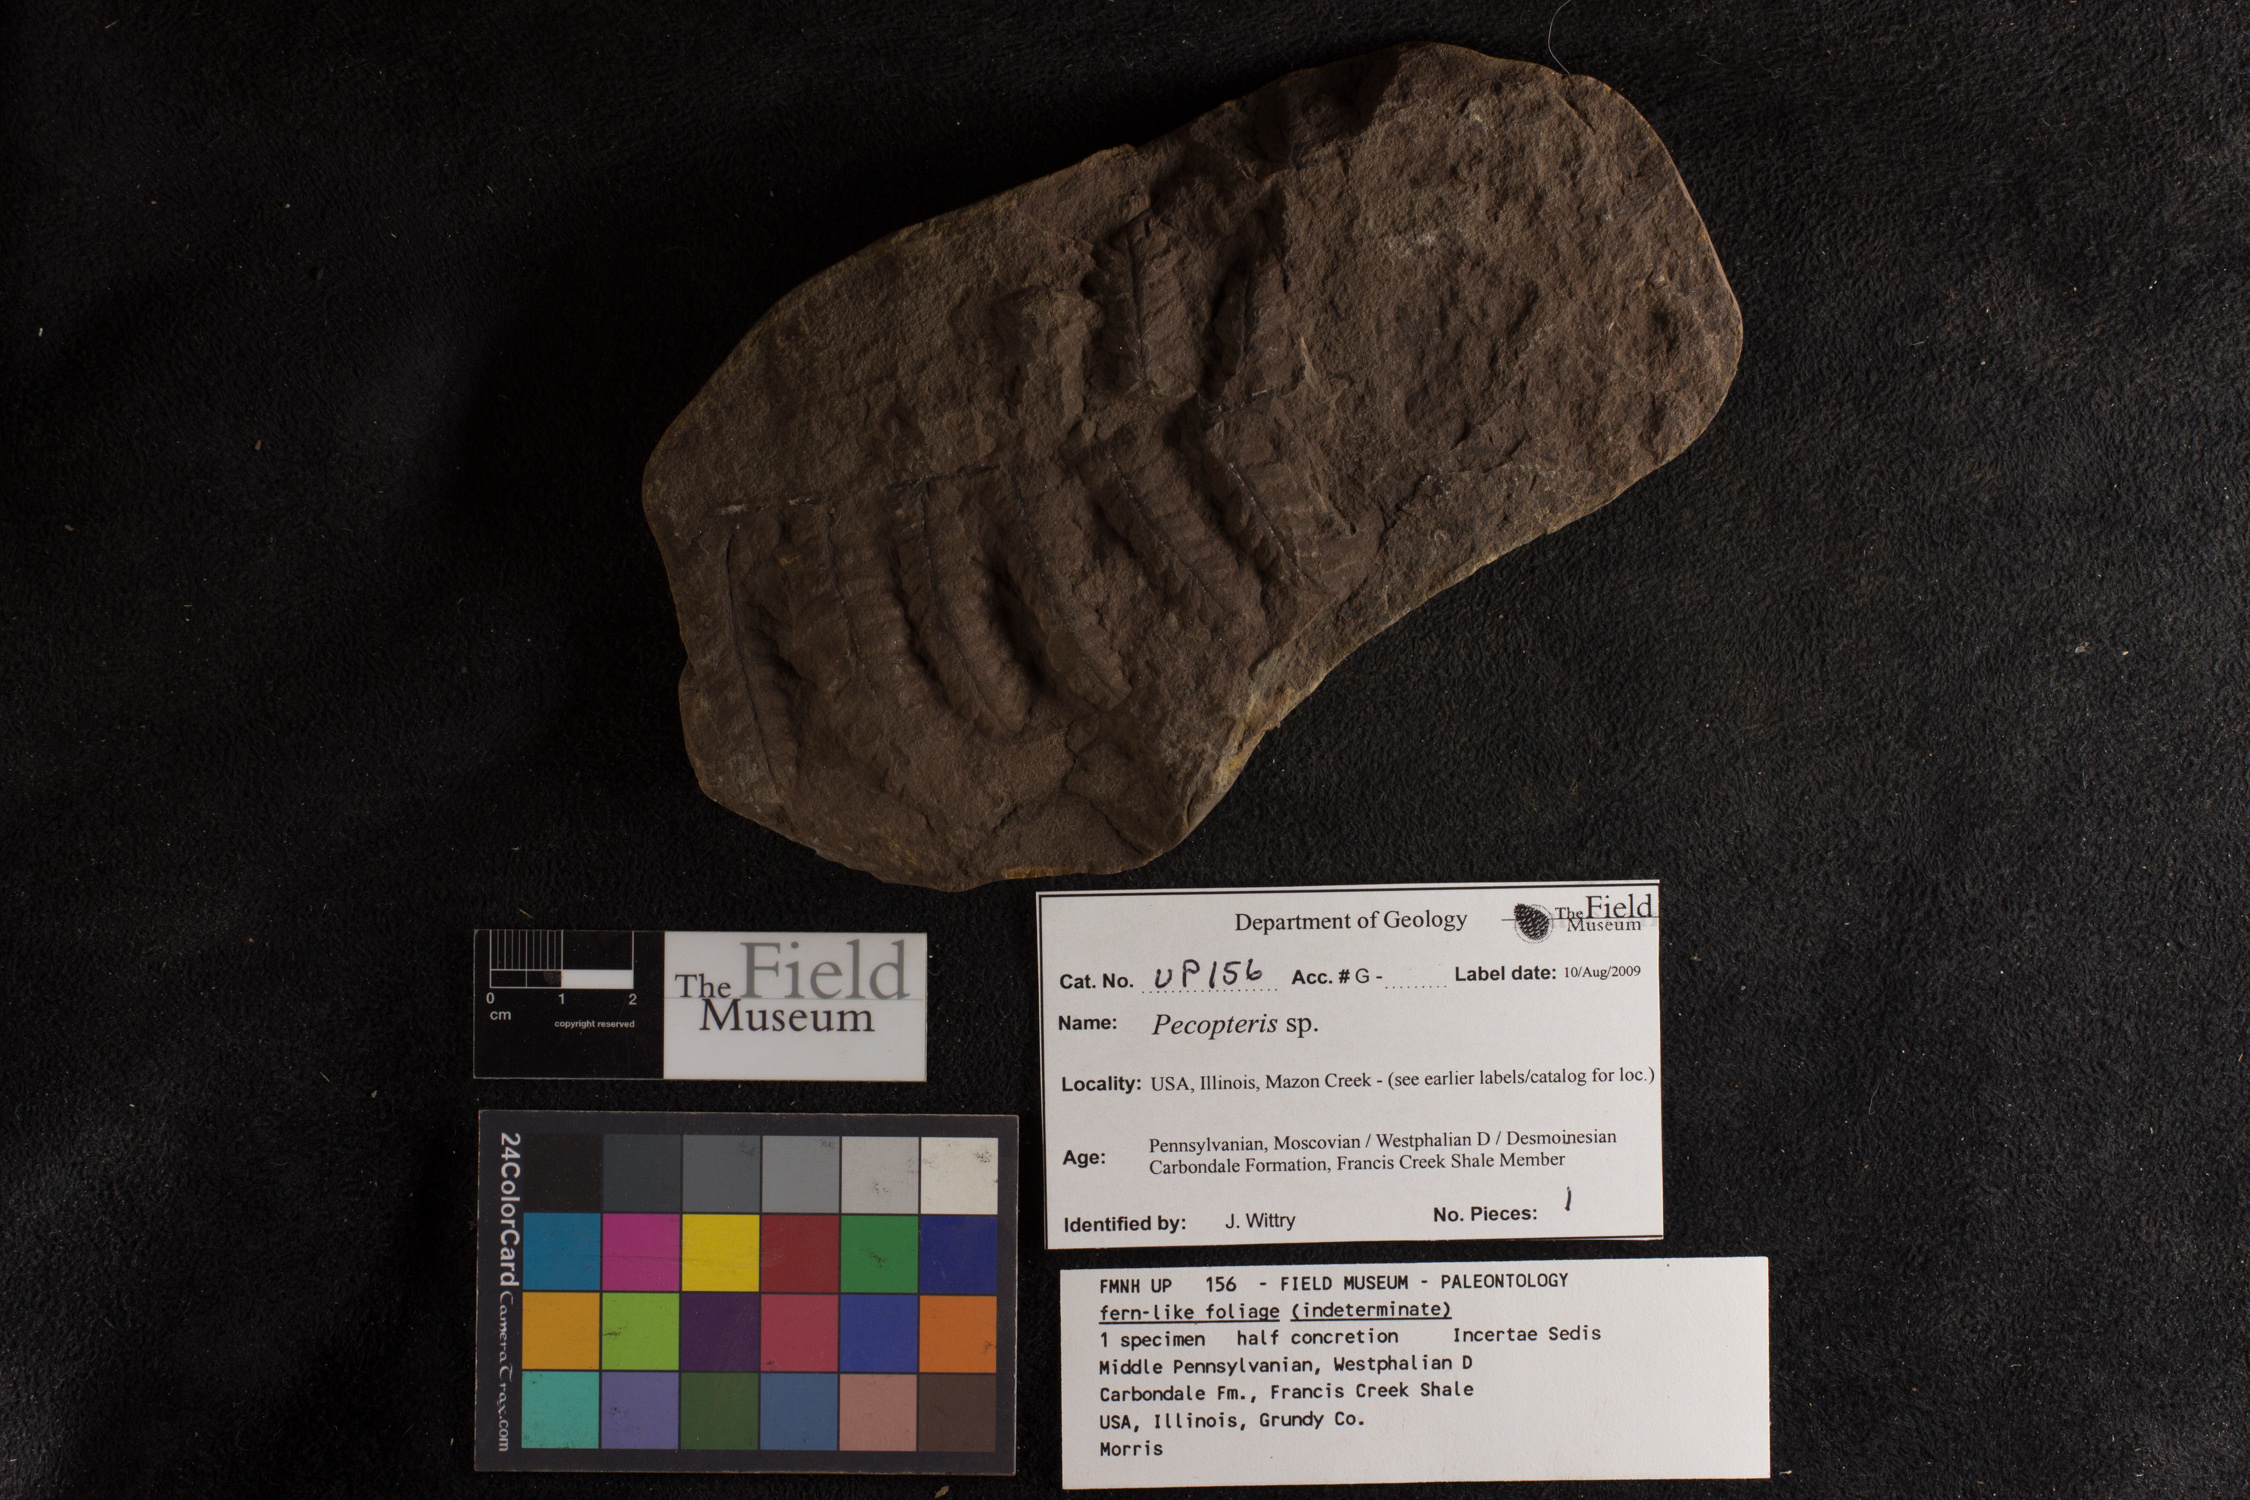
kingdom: Plantae
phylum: Tracheophyta
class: Polypodiopsida
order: Marattiales
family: Asterothecaceae
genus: Pecopteris
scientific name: Pecopteris
